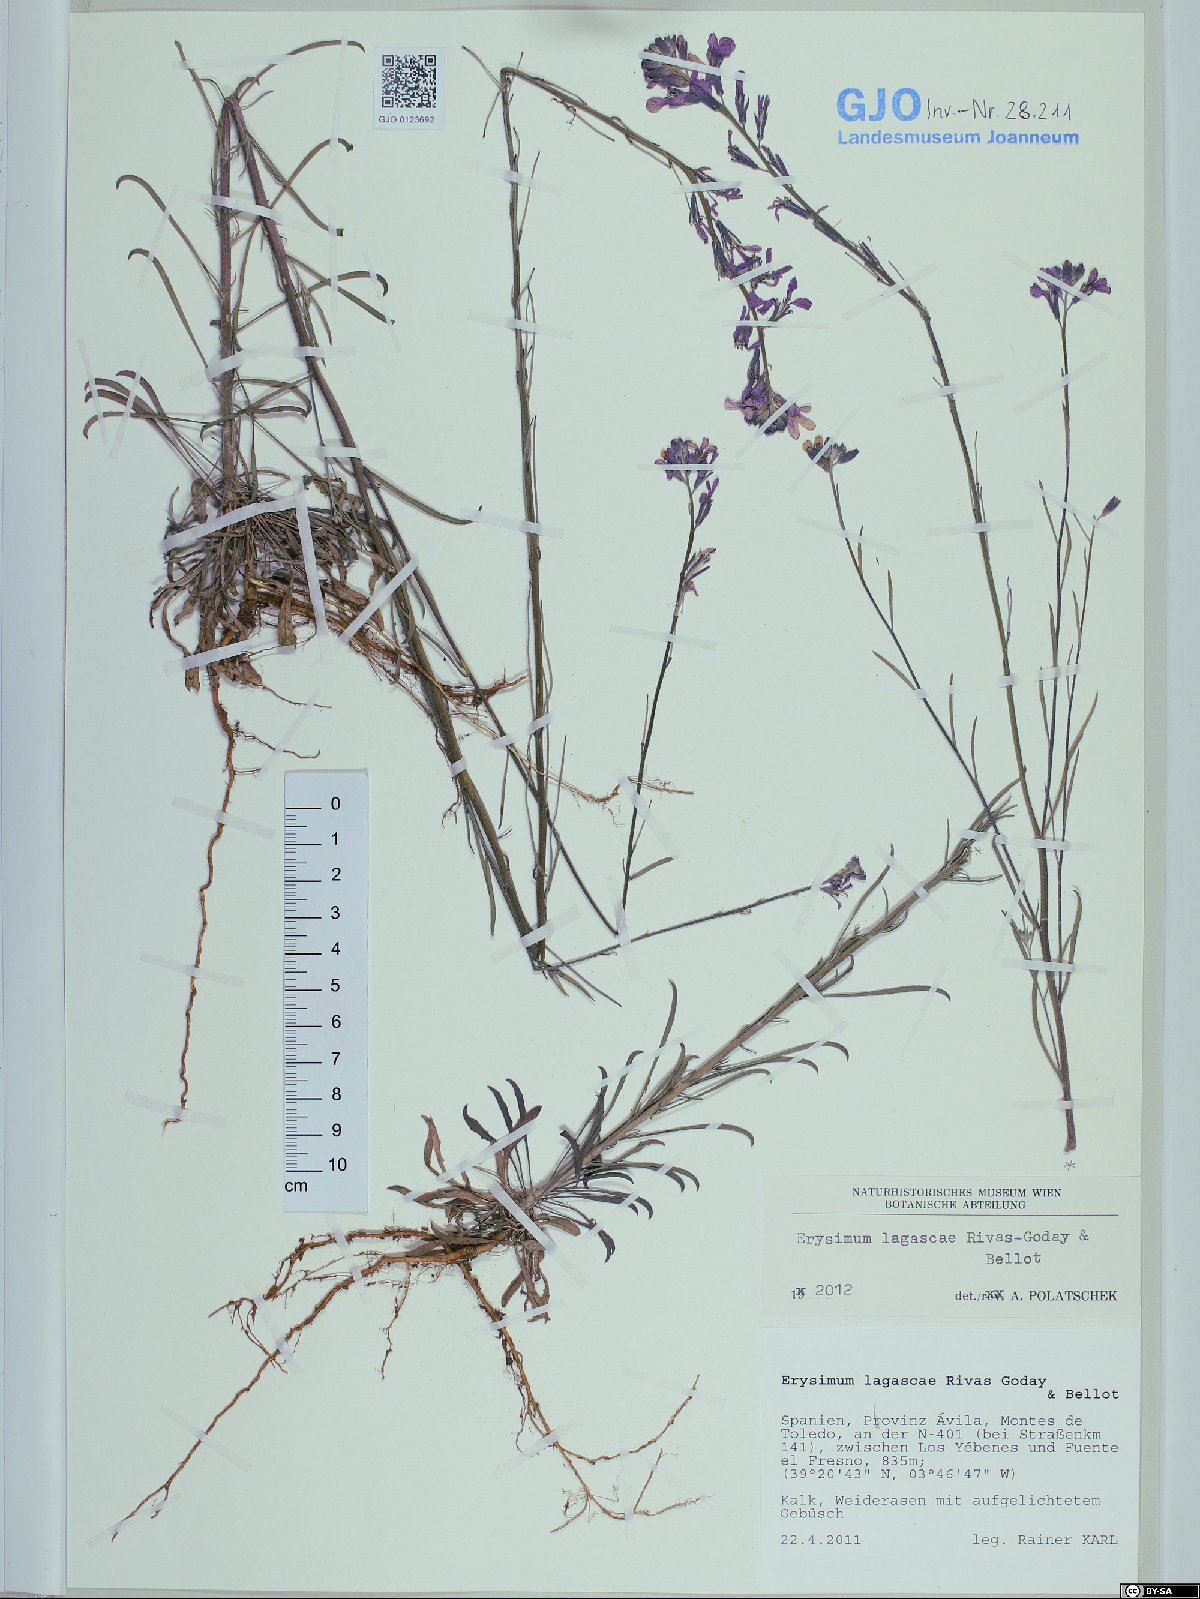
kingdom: Plantae
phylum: Tracheophyta
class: Magnoliopsida
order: Brassicales
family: Brassicaceae
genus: Erysimum
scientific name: Erysimum lagascae
